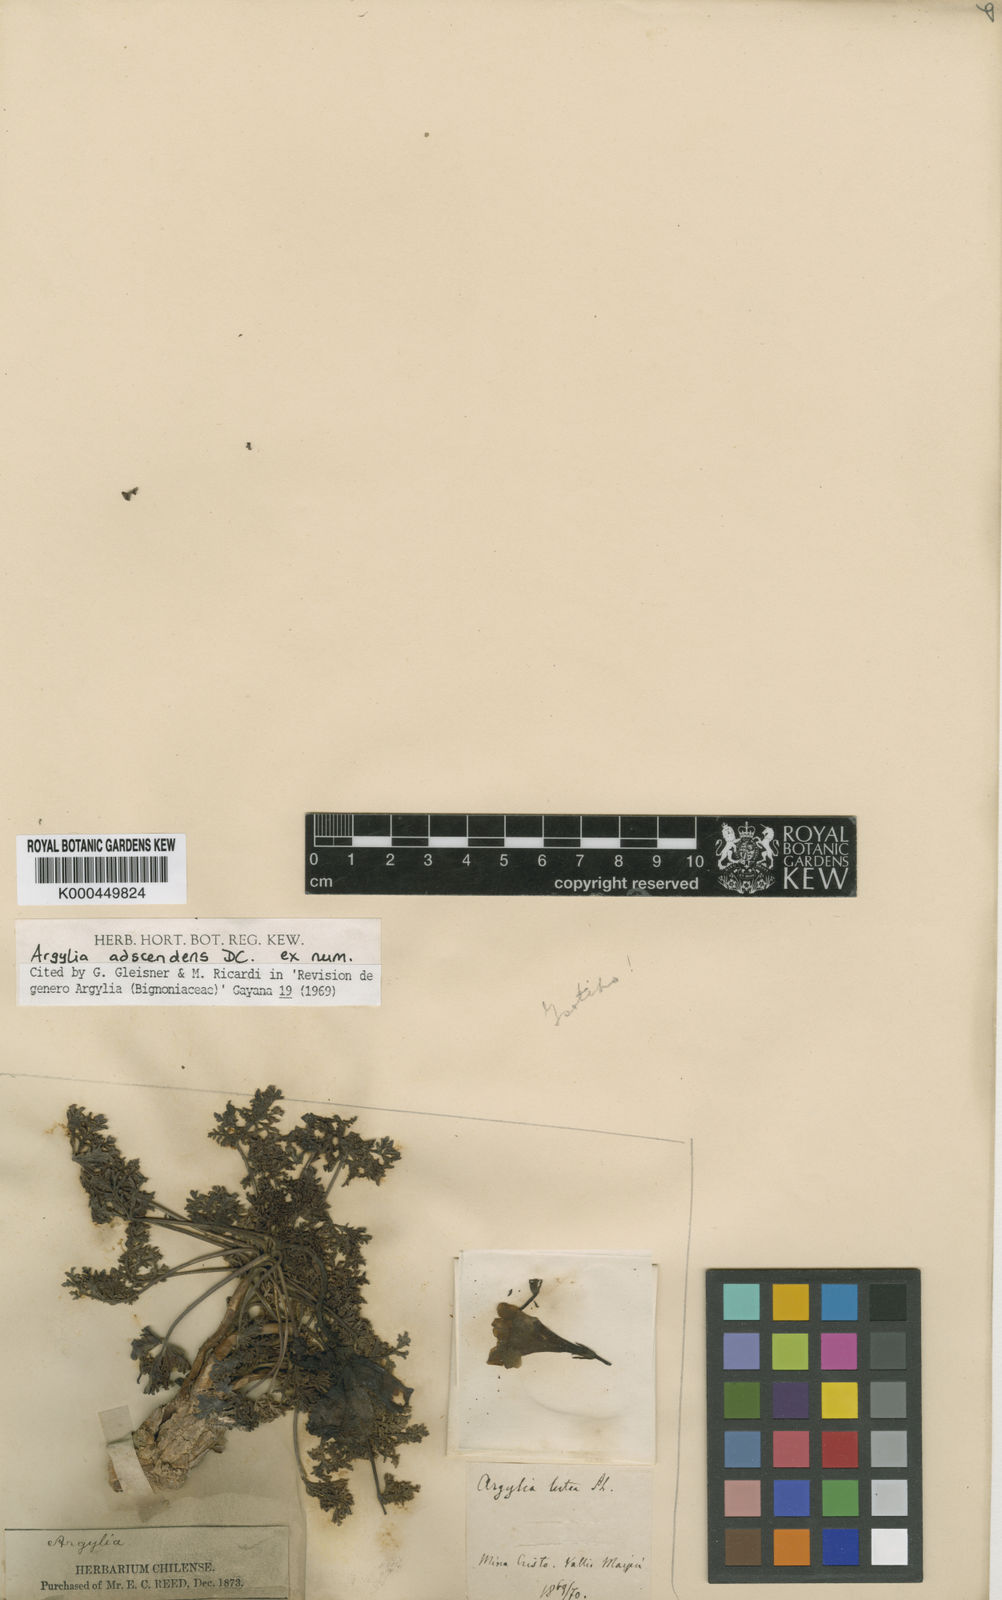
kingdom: Plantae
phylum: Tracheophyta
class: Magnoliopsida
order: Lamiales
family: Bignoniaceae
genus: Argylia
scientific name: Argylia adscendens
